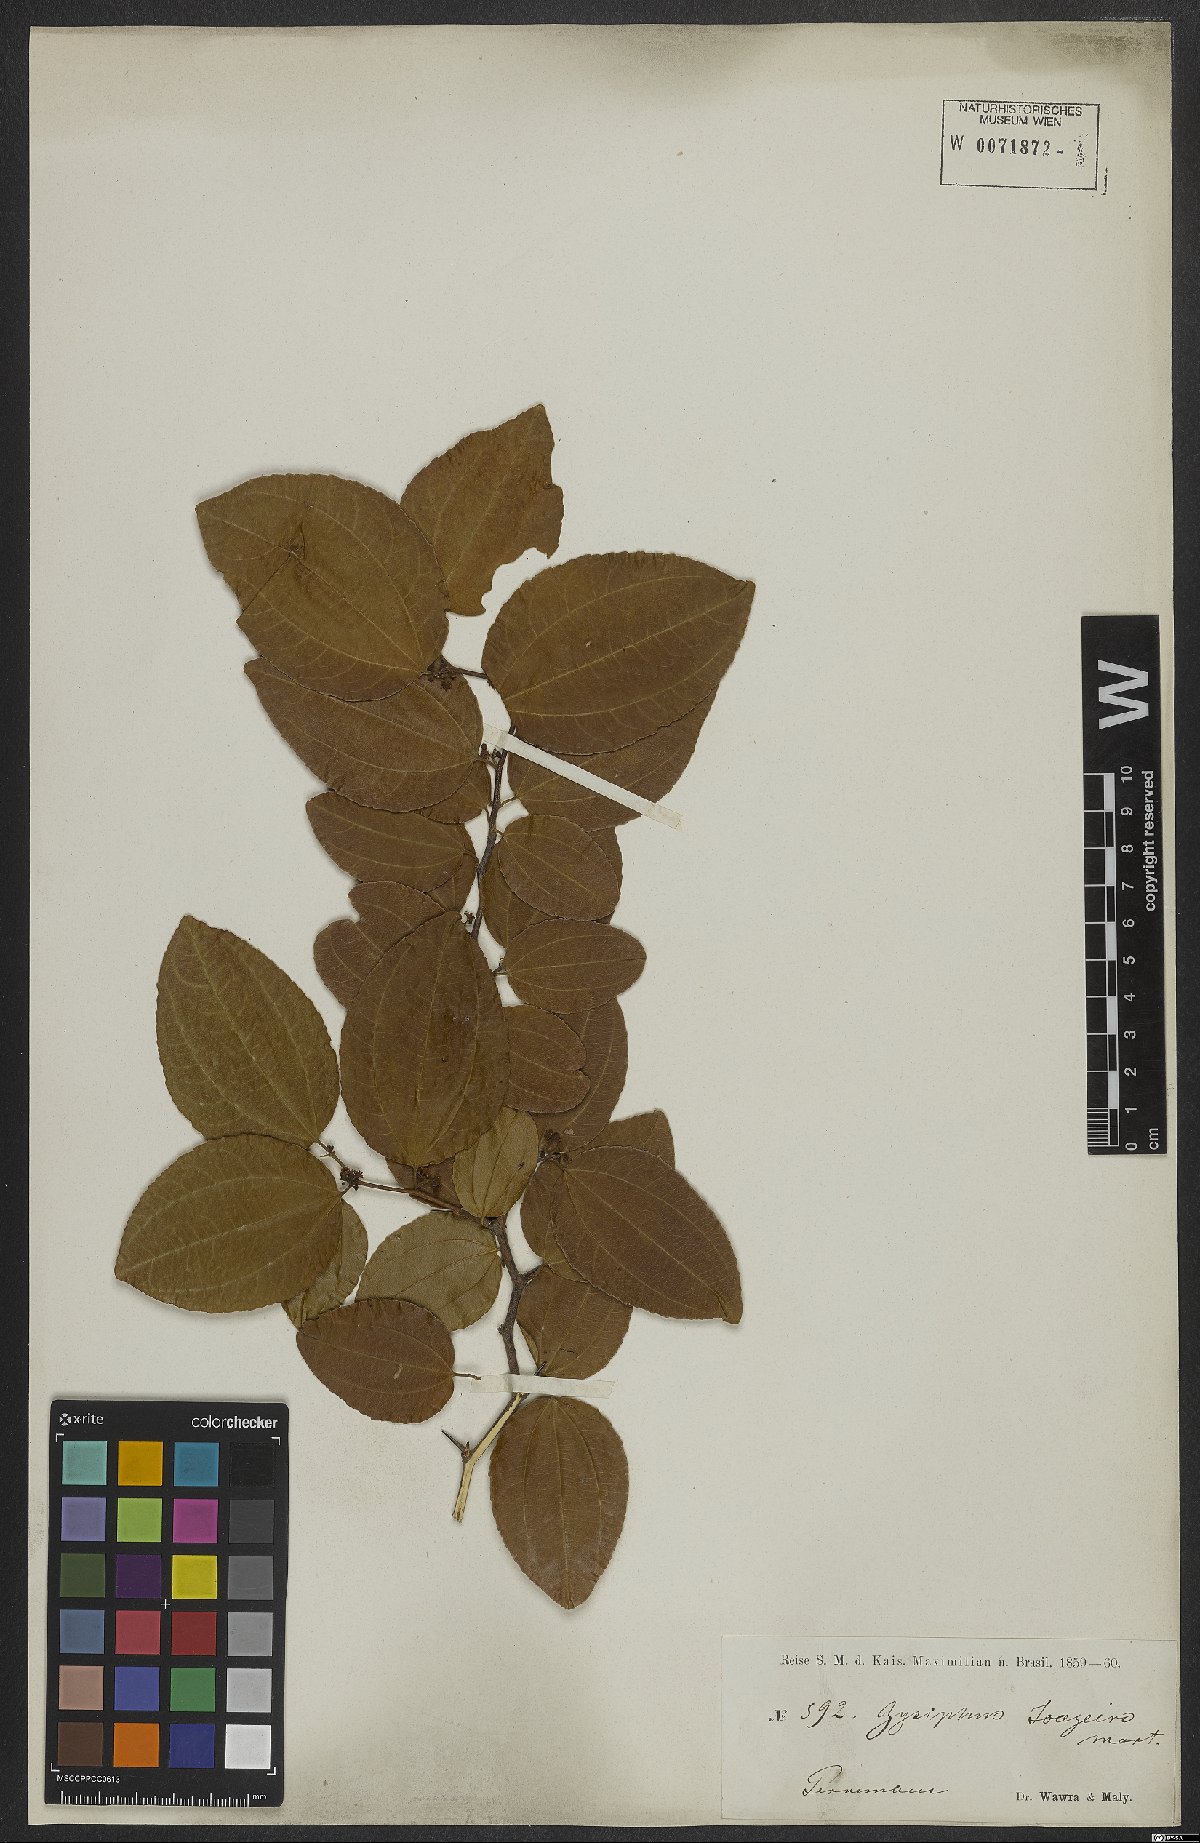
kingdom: Plantae
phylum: Tracheophyta
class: Magnoliopsida
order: Rosales
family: Rhamnaceae
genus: Sarcomphalus
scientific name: Sarcomphalus joazeiro
